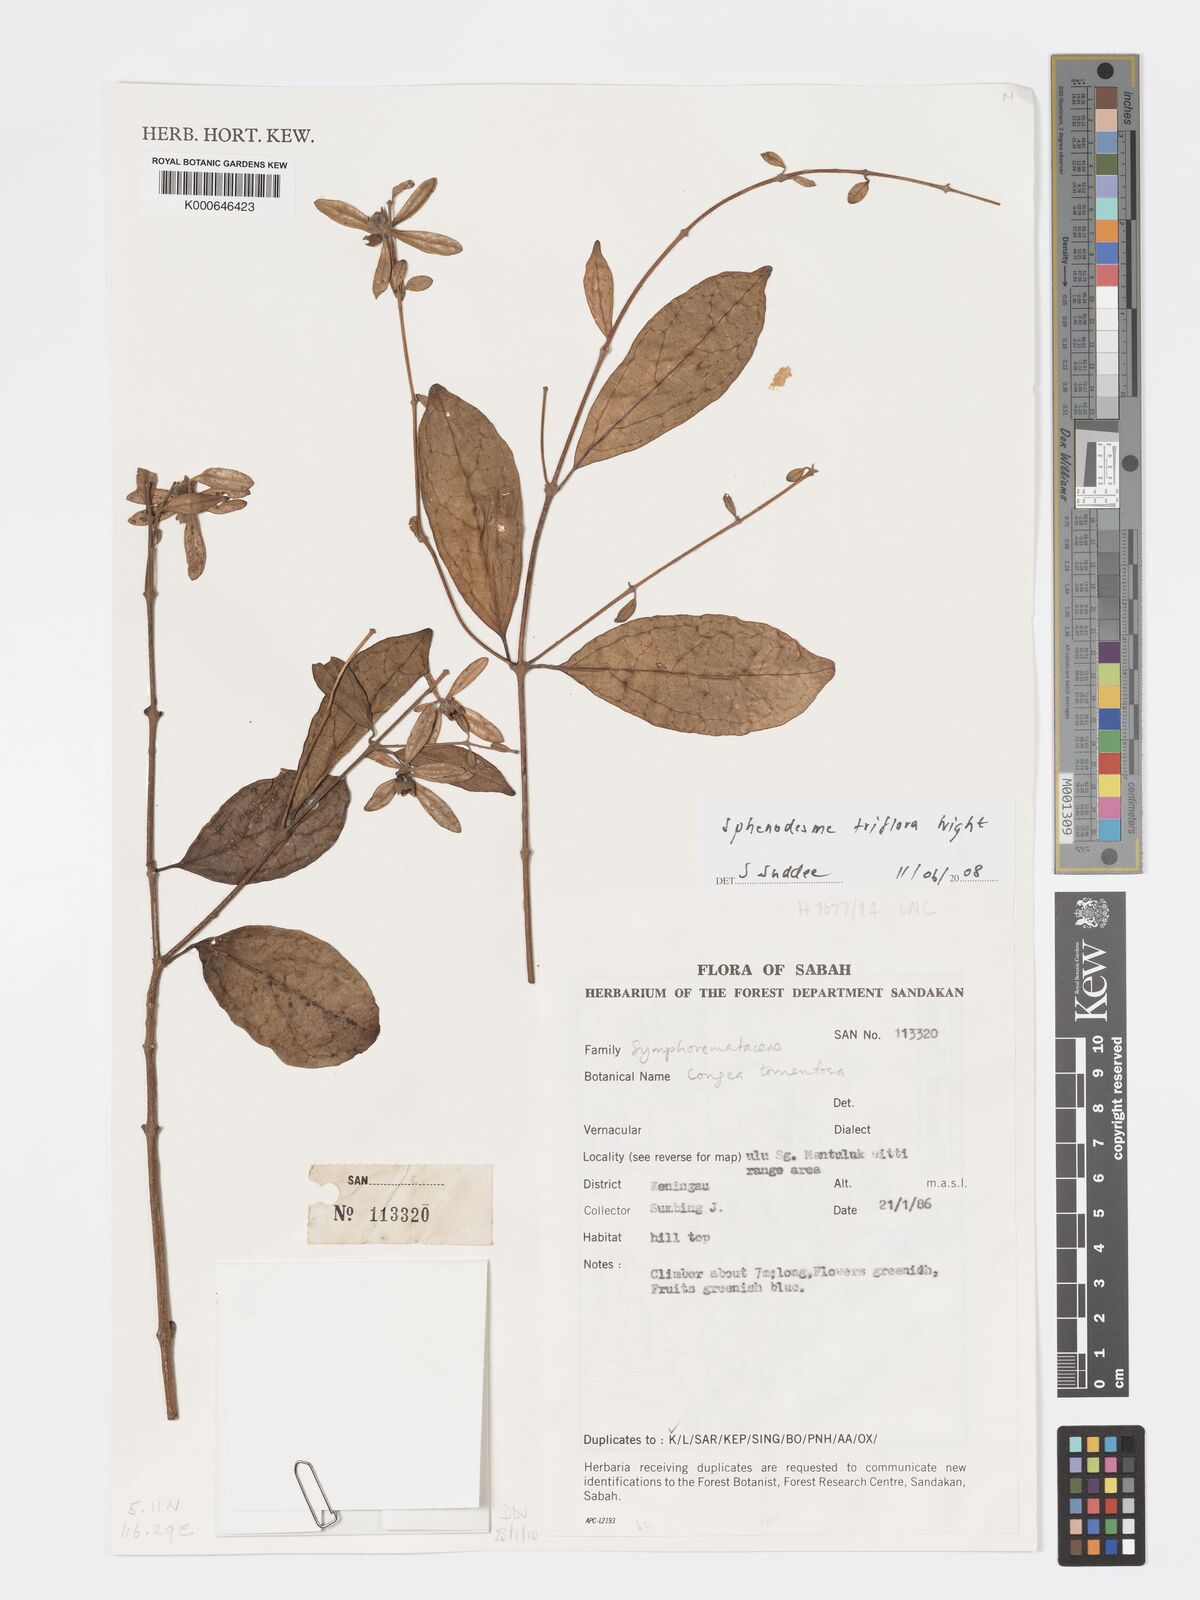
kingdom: Plantae
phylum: Tracheophyta
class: Magnoliopsida
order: Lamiales
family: Lamiaceae
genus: Sphenodesme
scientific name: Sphenodesme triflora
